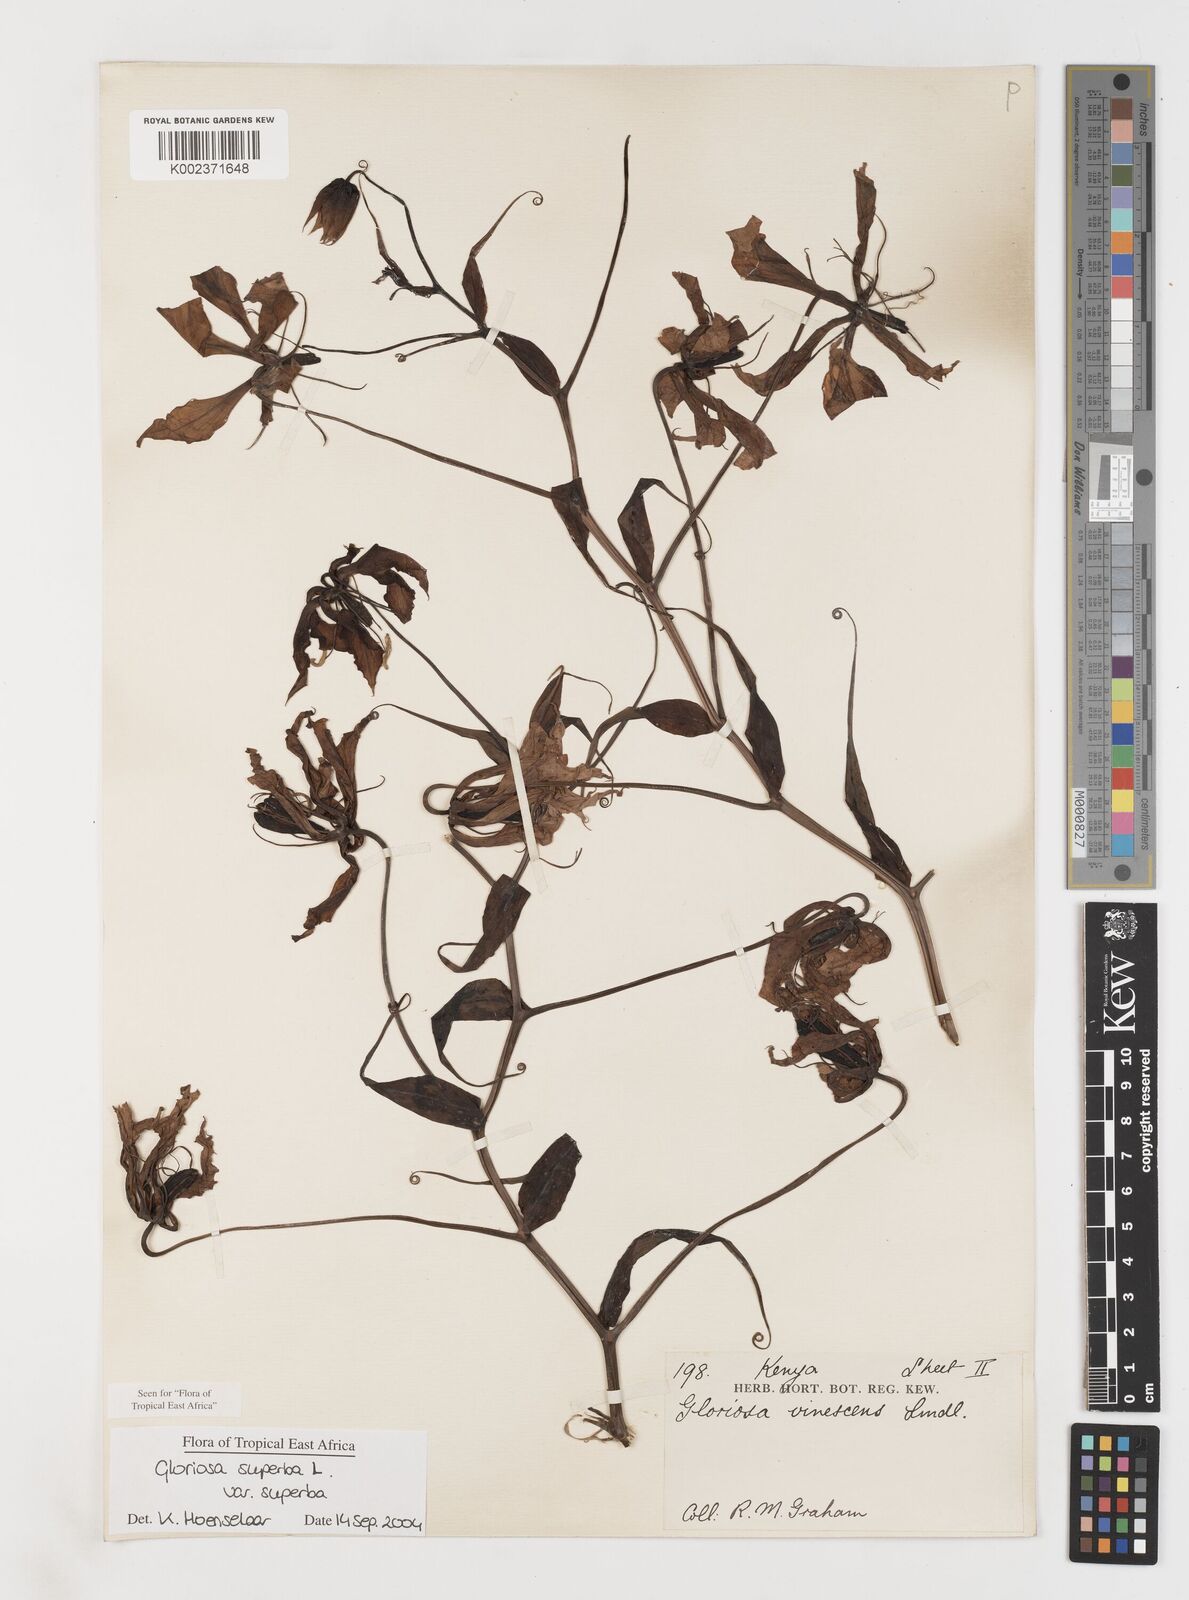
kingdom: Plantae
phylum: Tracheophyta
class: Liliopsida
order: Liliales
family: Colchicaceae
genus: Gloriosa
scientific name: Gloriosa simplex
